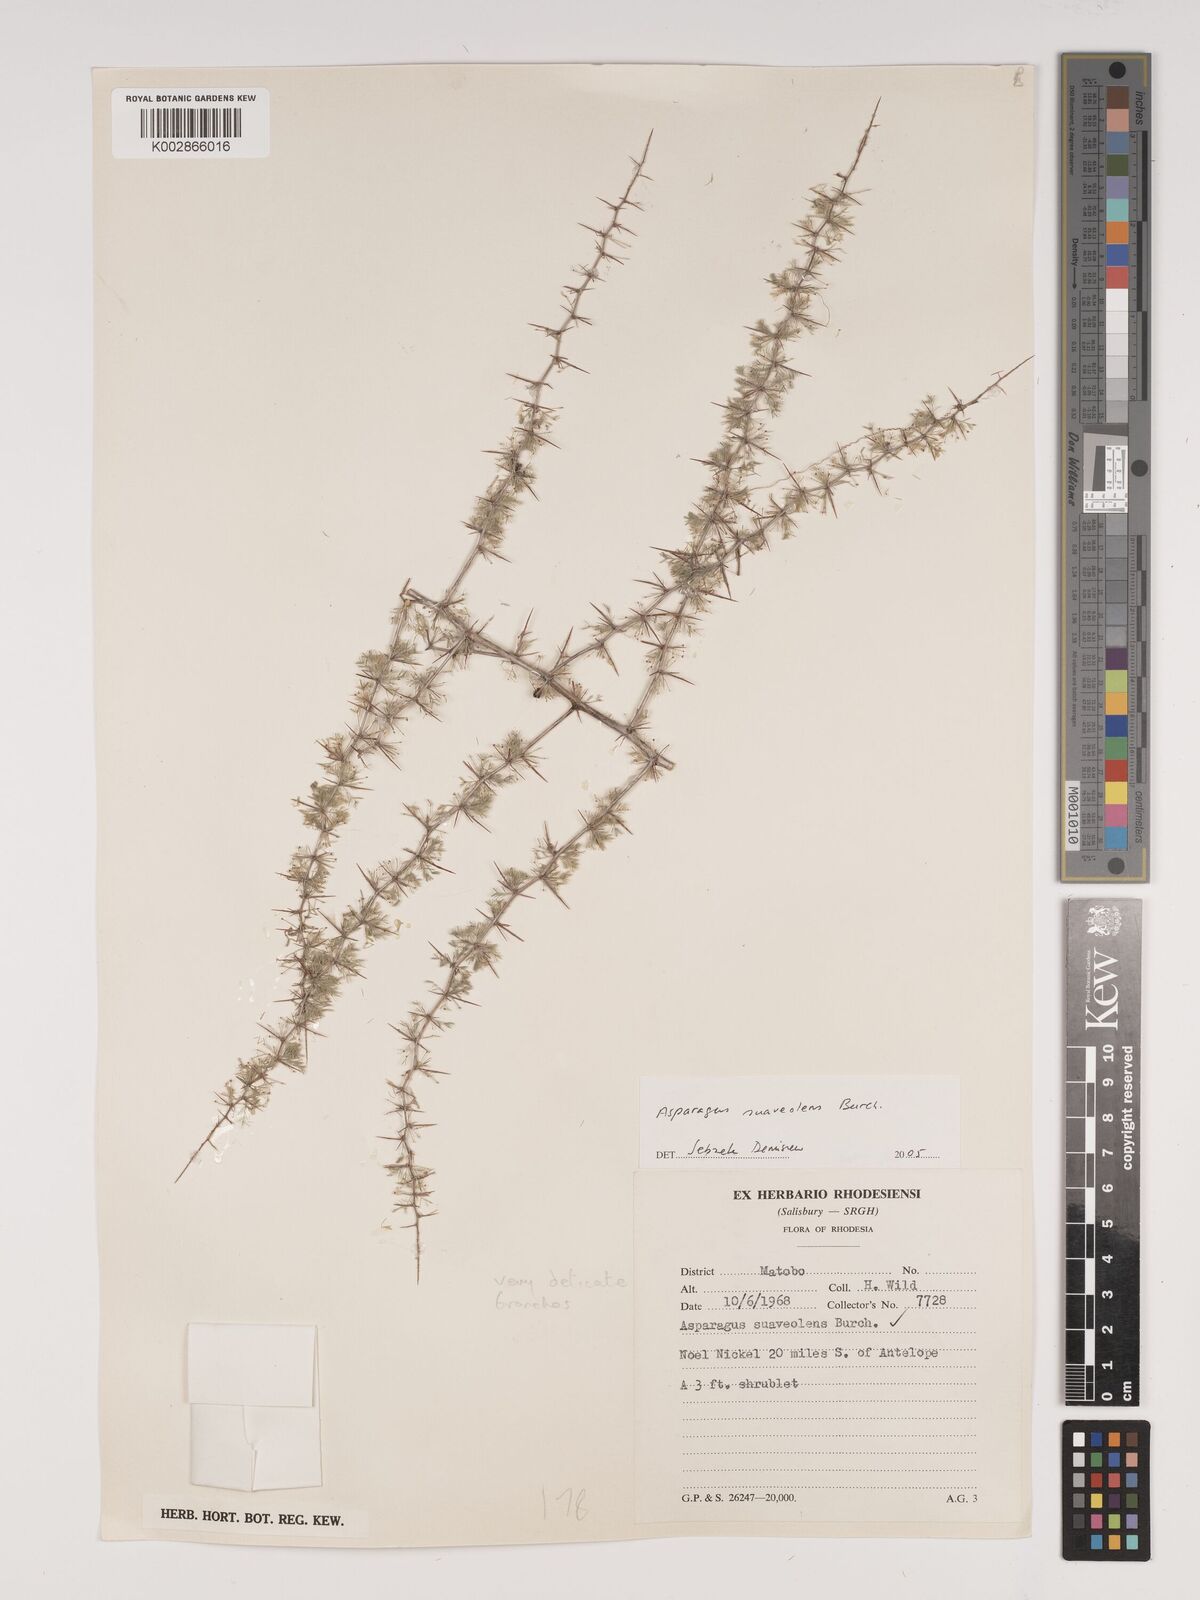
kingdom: Plantae
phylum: Tracheophyta
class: Liliopsida
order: Asparagales
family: Asparagaceae
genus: Asparagus
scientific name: Asparagus suaveolens
